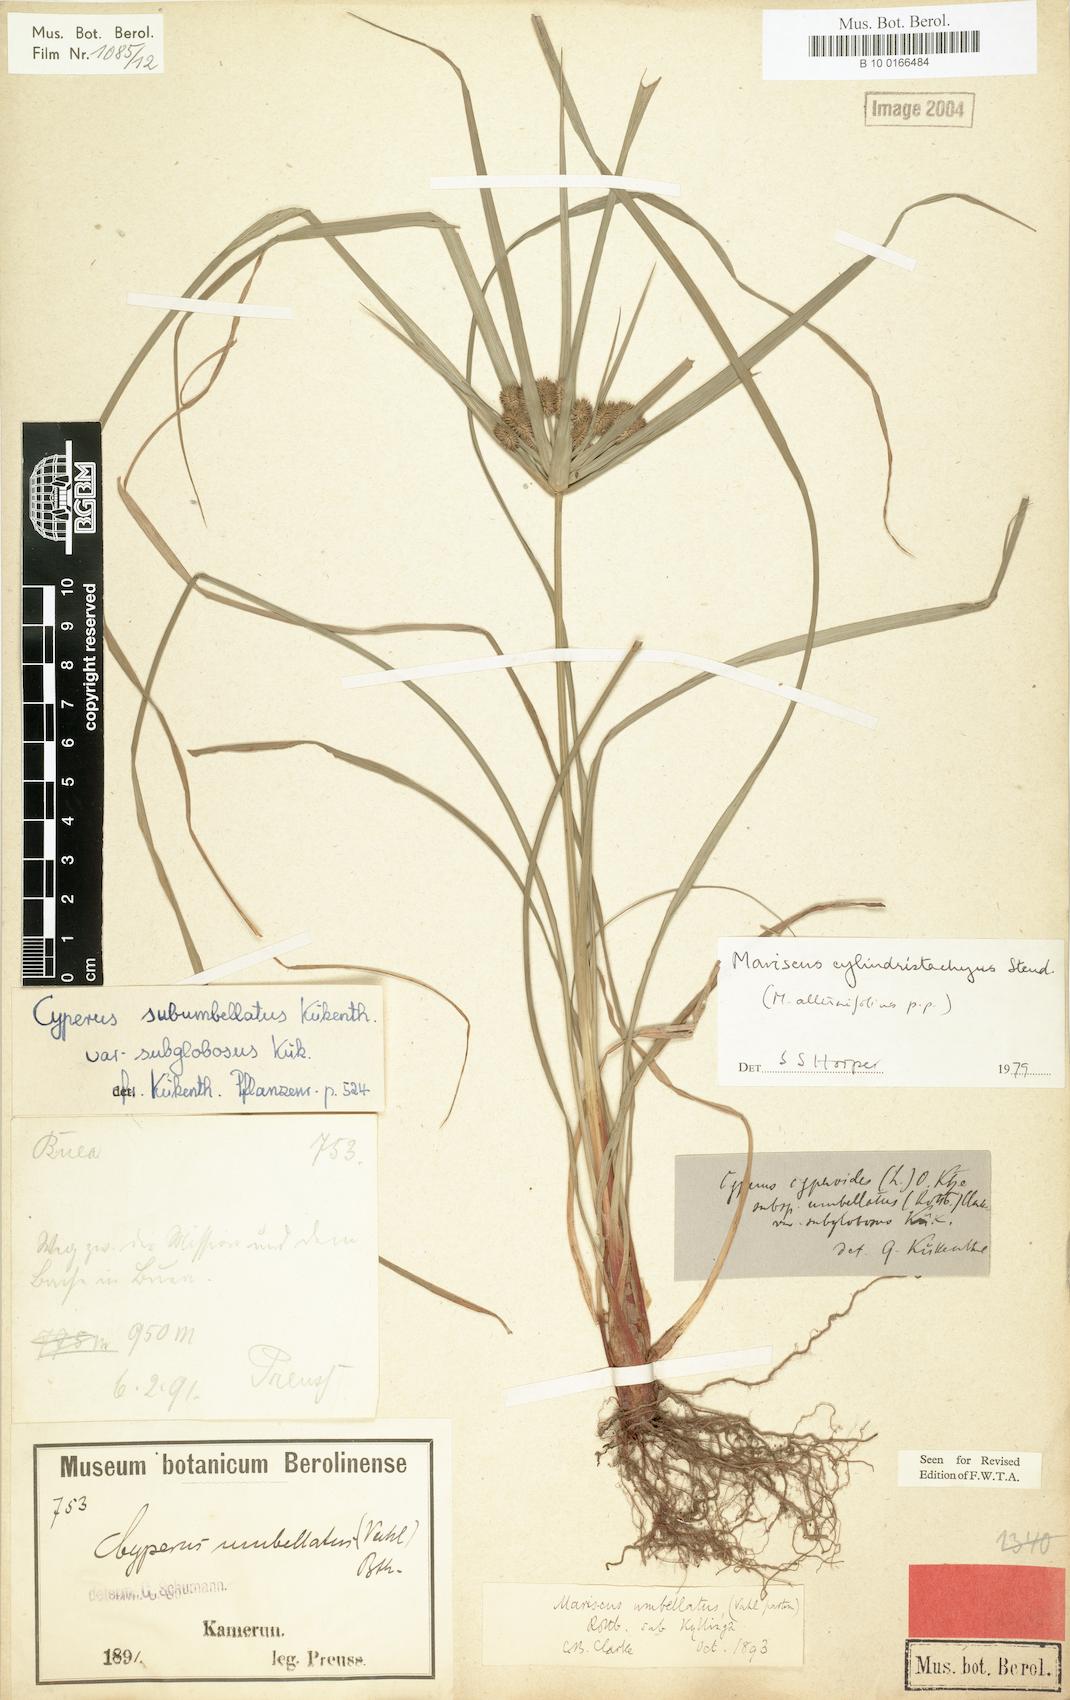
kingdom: Plantae
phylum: Tracheophyta
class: Liliopsida
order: Poales
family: Cyperaceae
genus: Cyperus
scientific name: Cyperus cyperoides
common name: Pacific island flat sedge
